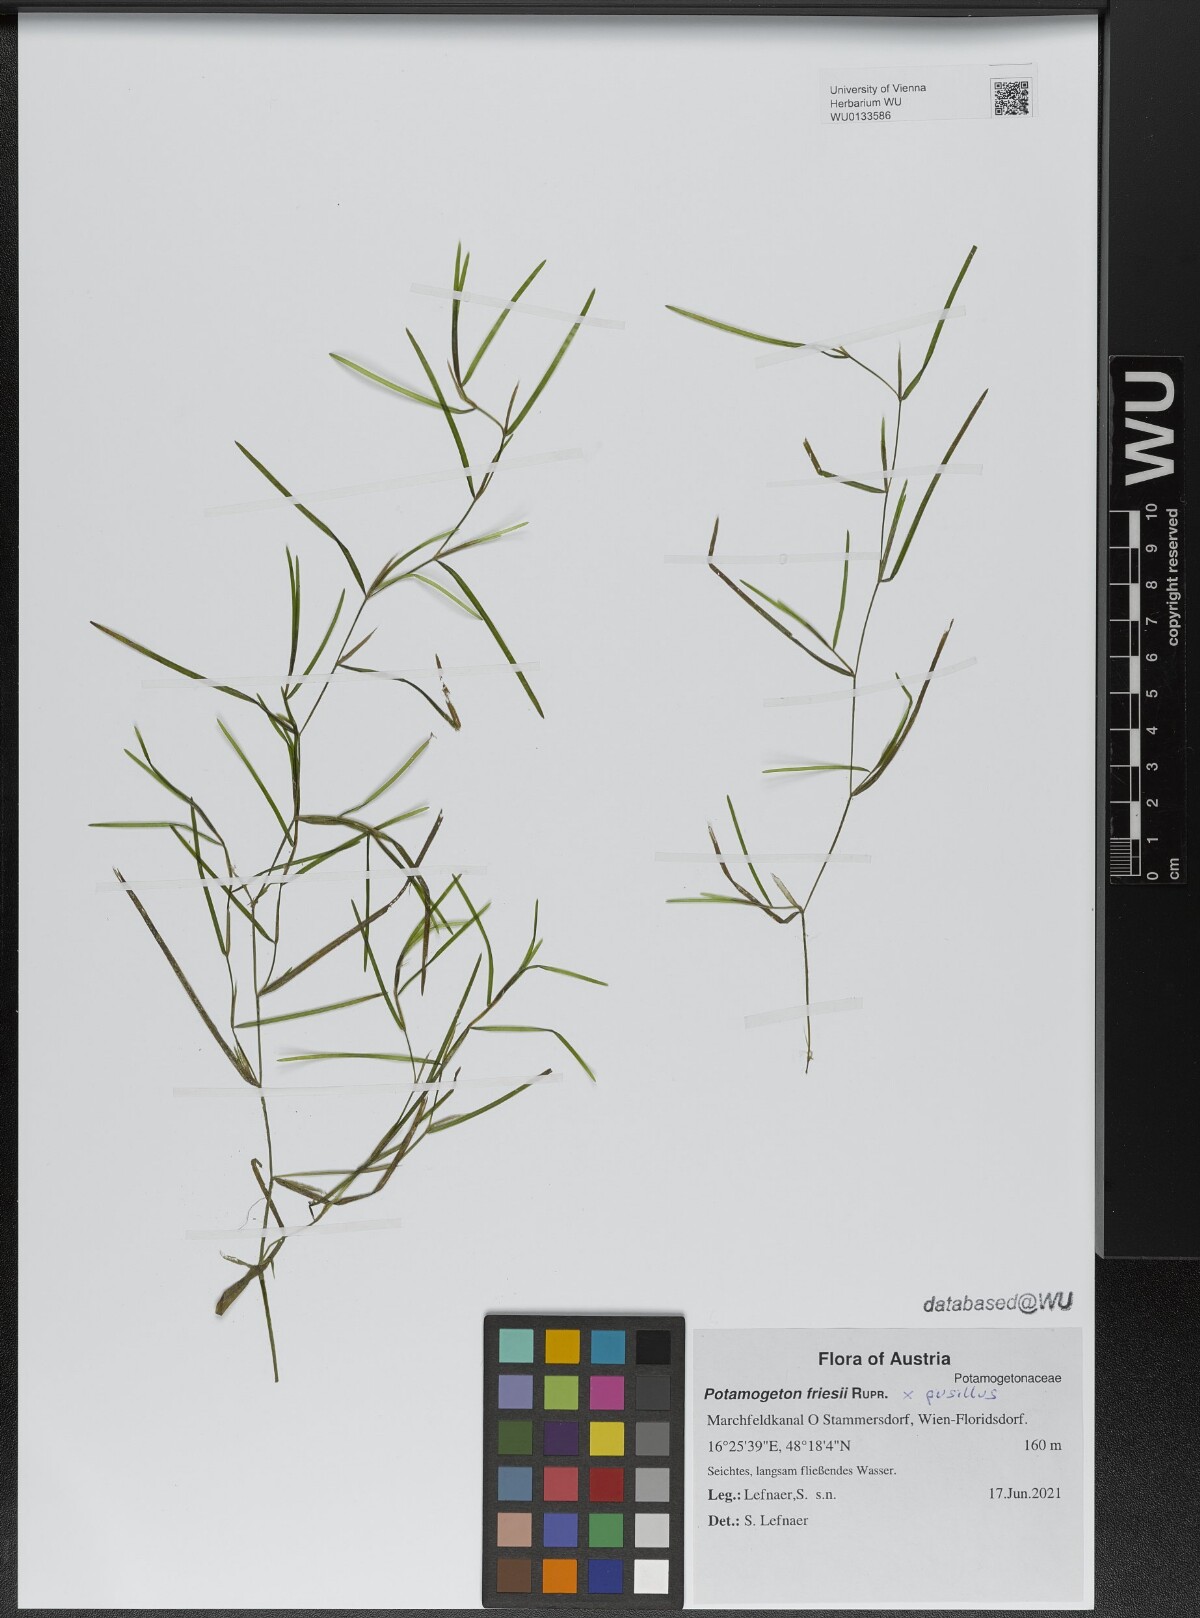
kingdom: Plantae
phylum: Tracheophyta
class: Liliopsida
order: Alismatales
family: Potamogetonaceae
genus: Potamogeton
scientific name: Potamogeton friesii
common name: Flat-stalked pondweed
